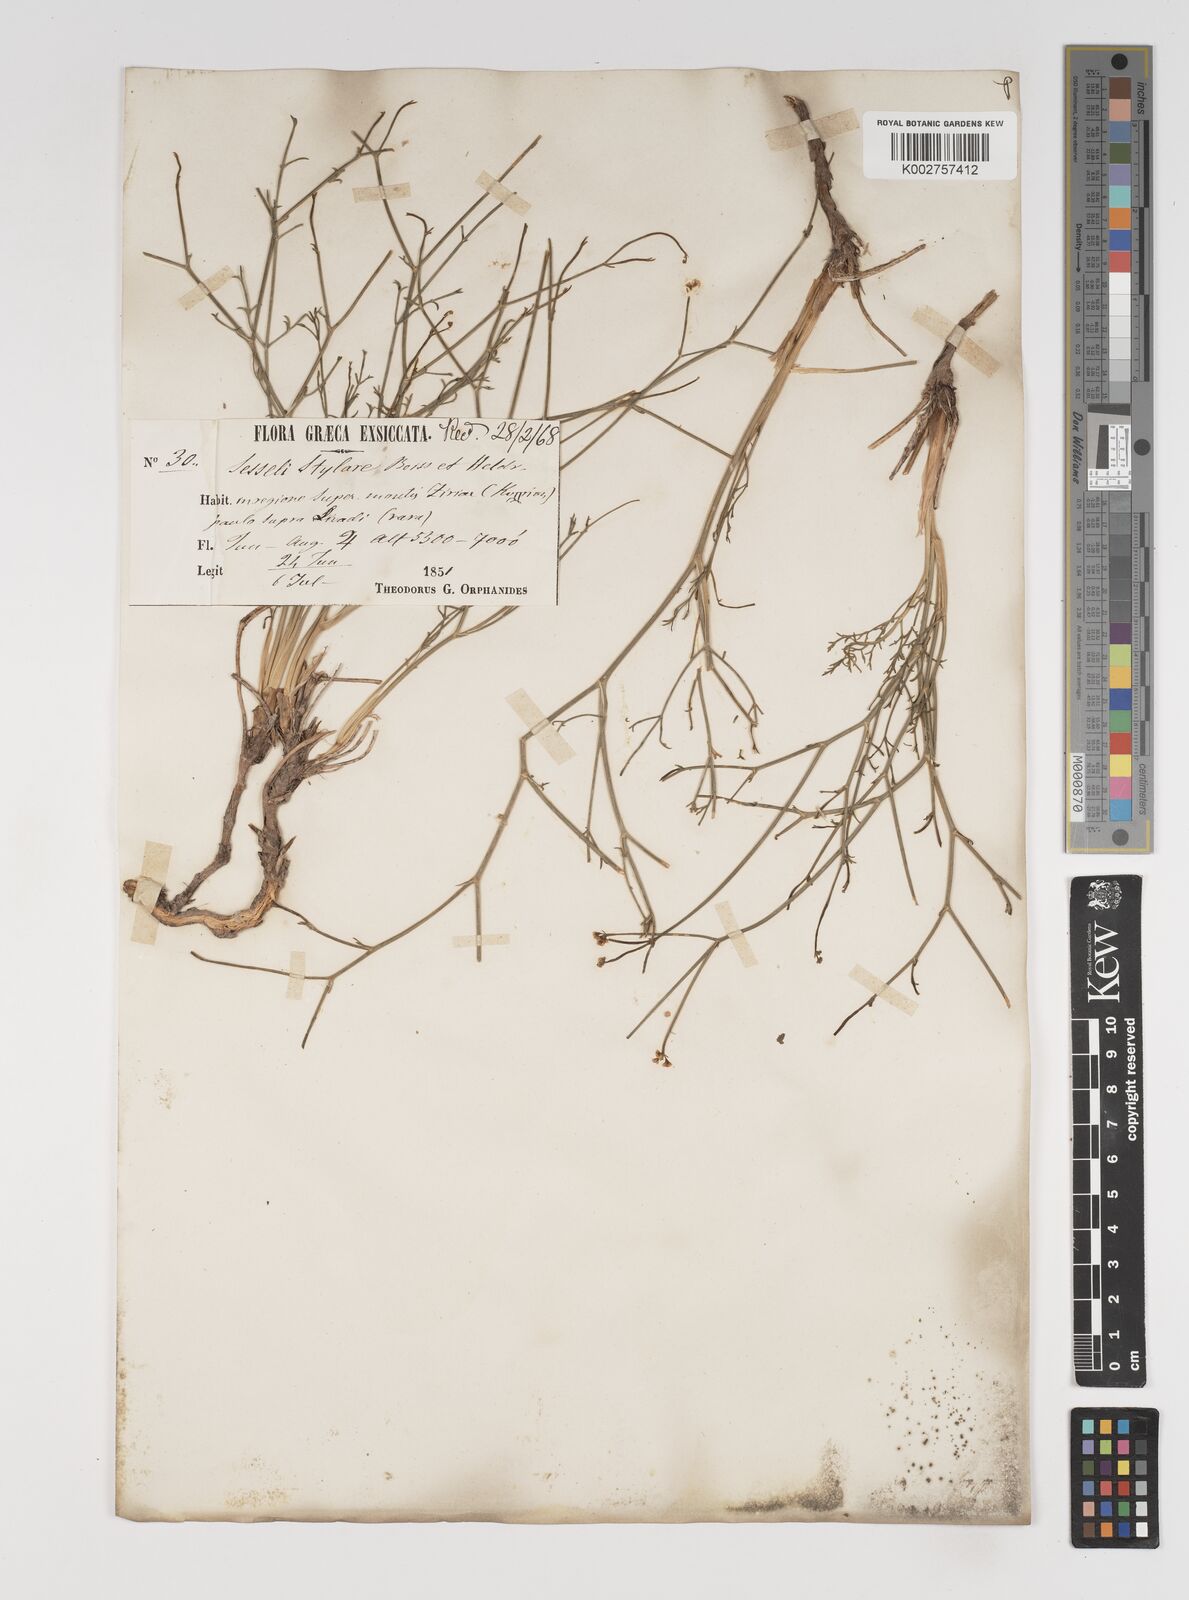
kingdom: Plantae
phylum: Tracheophyta
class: Magnoliopsida
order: Apiales
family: Apiaceae
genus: Thamnosciadium
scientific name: Thamnosciadium junceum
